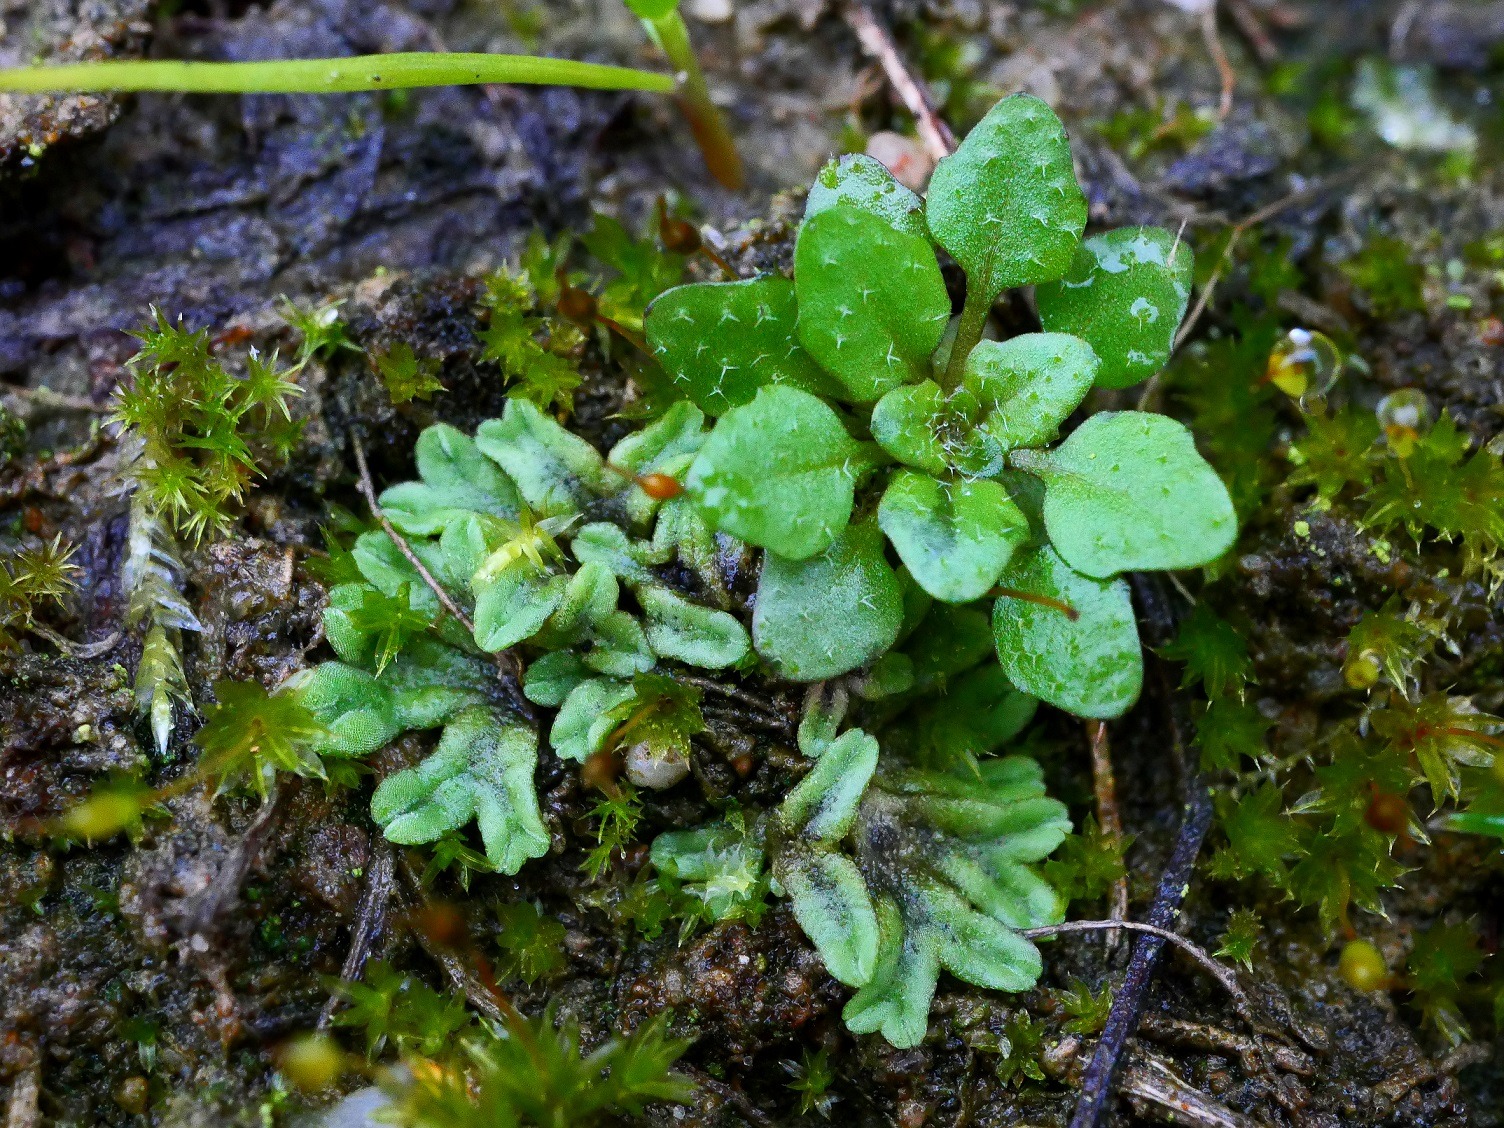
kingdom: Plantae
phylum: Marchantiophyta
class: Marchantiopsida
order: Marchantiales
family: Ricciaceae
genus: Riccia
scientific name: Riccia glauca
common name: Blågrøn stjerneløv
